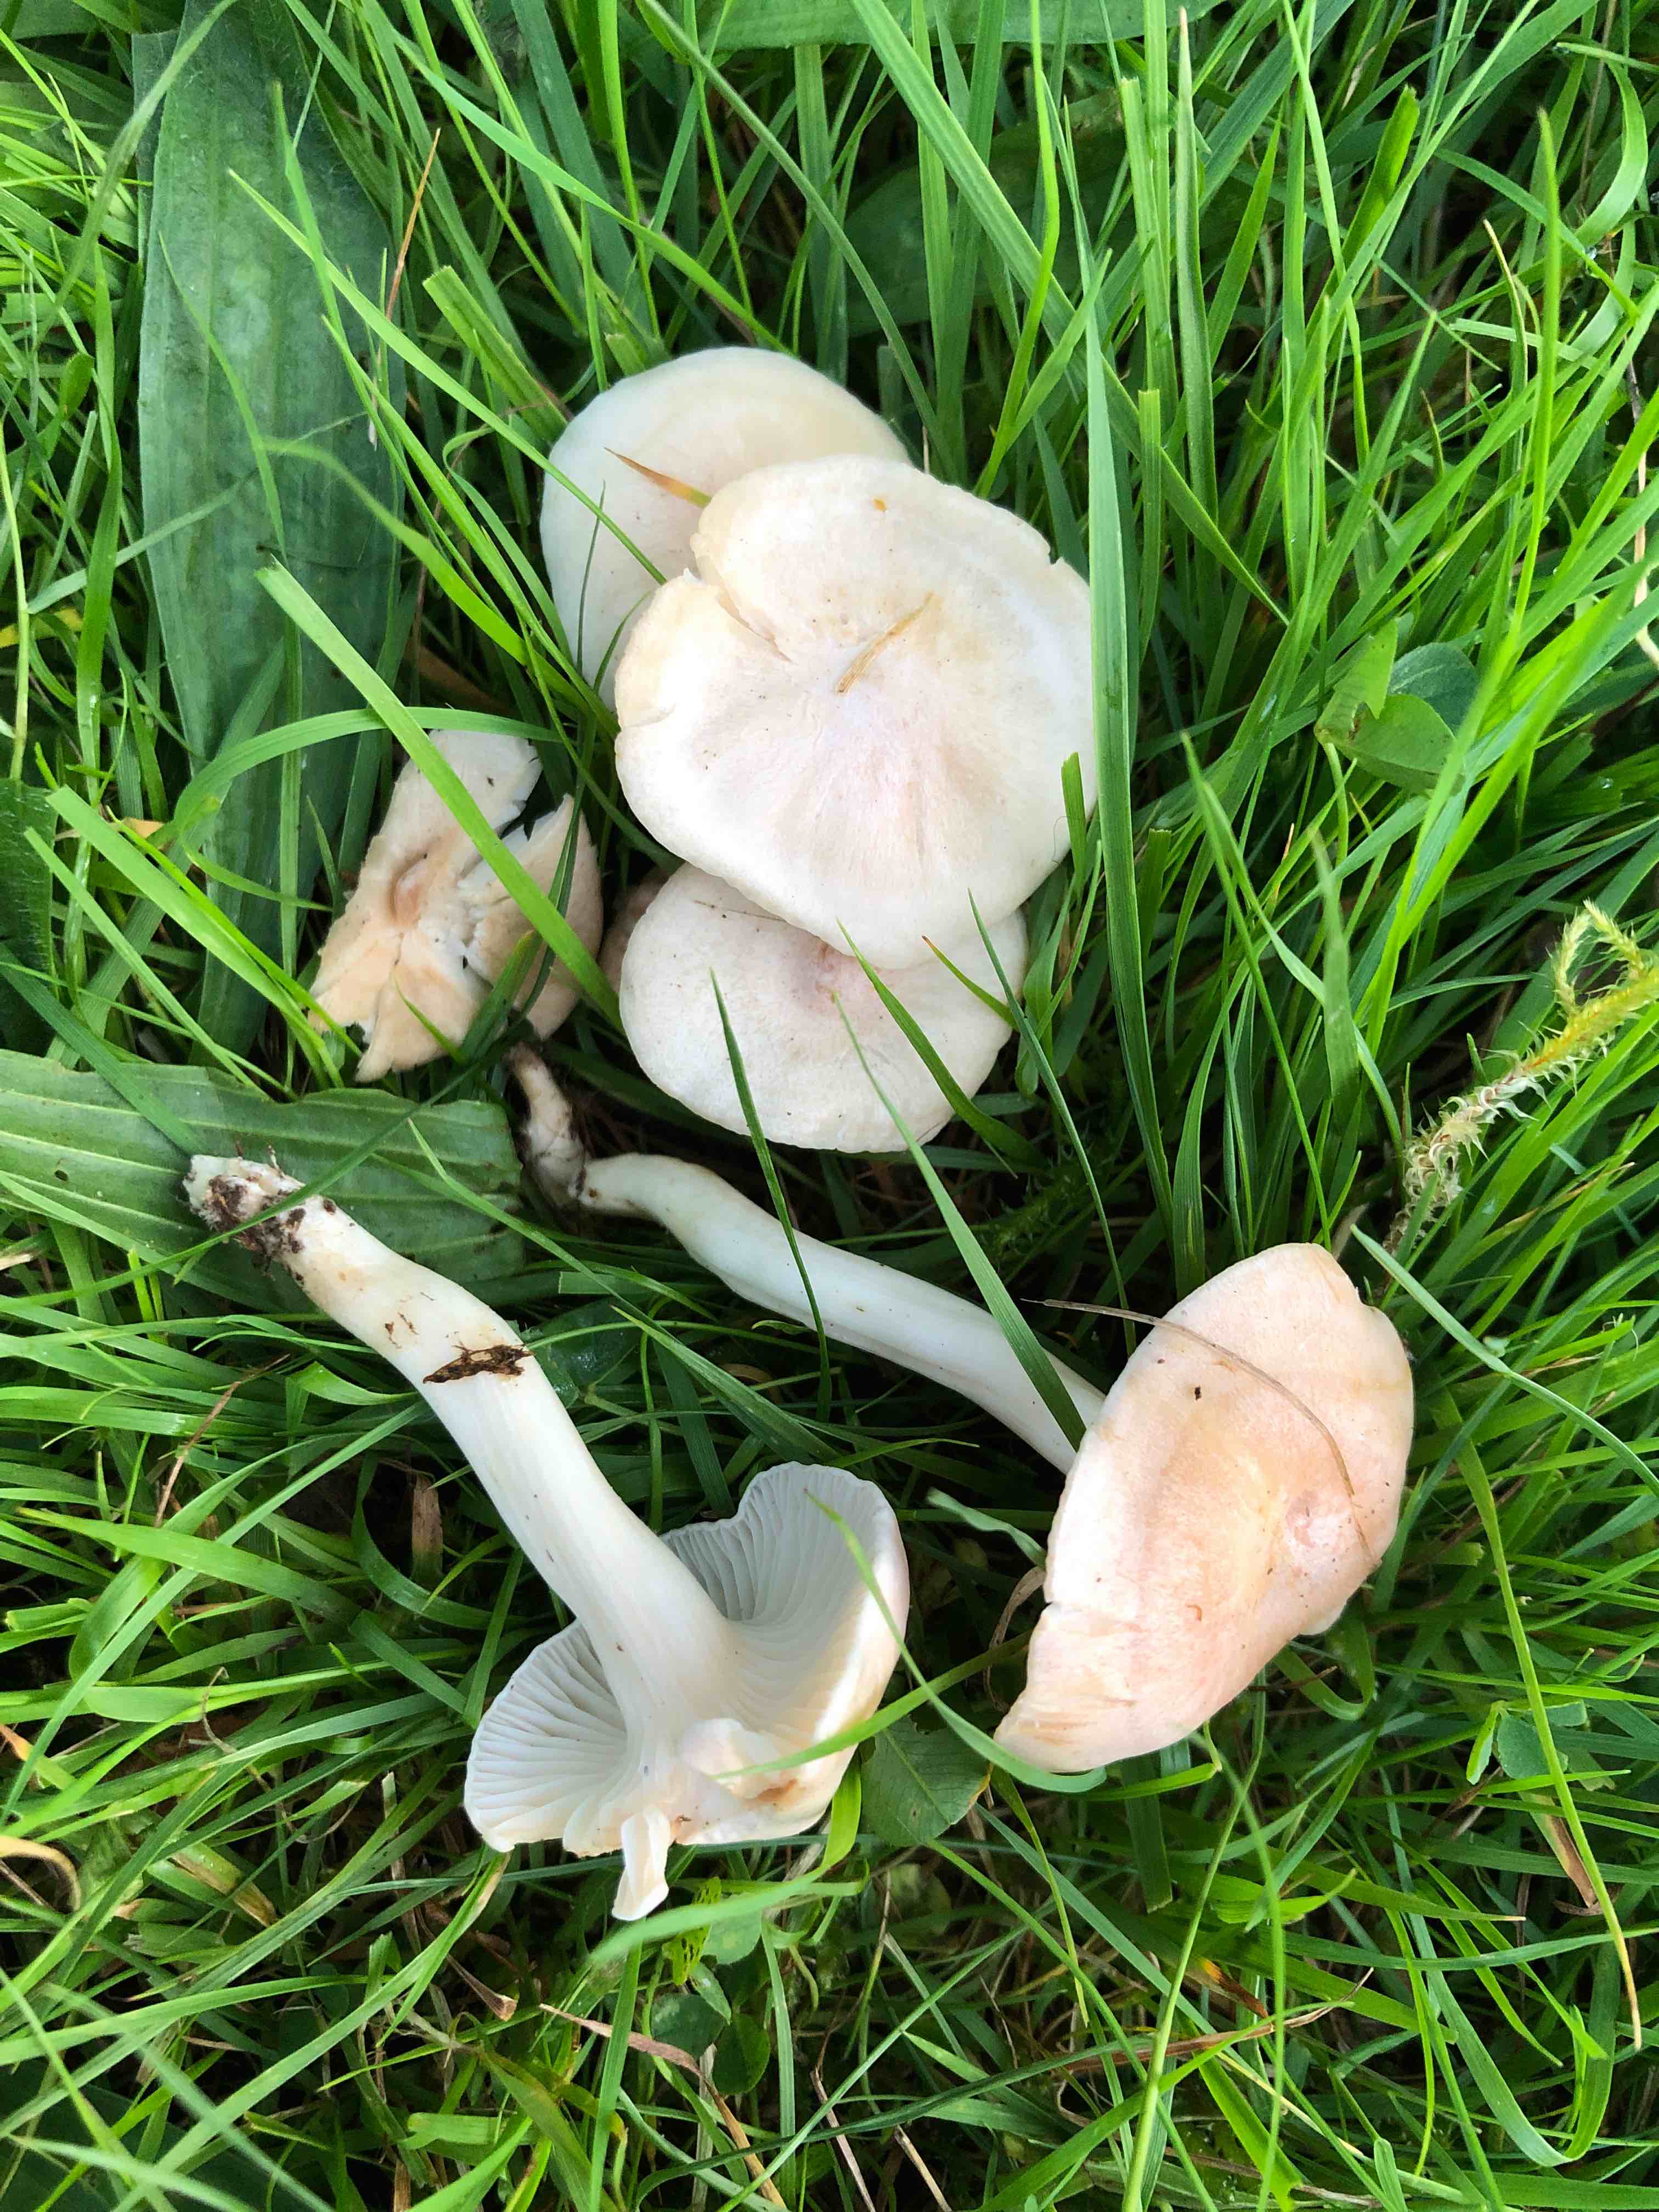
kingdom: Fungi
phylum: Basidiomycota
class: Agaricomycetes
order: Agaricales
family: Hygrophoraceae
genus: Cuphophyllus
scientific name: Cuphophyllus
